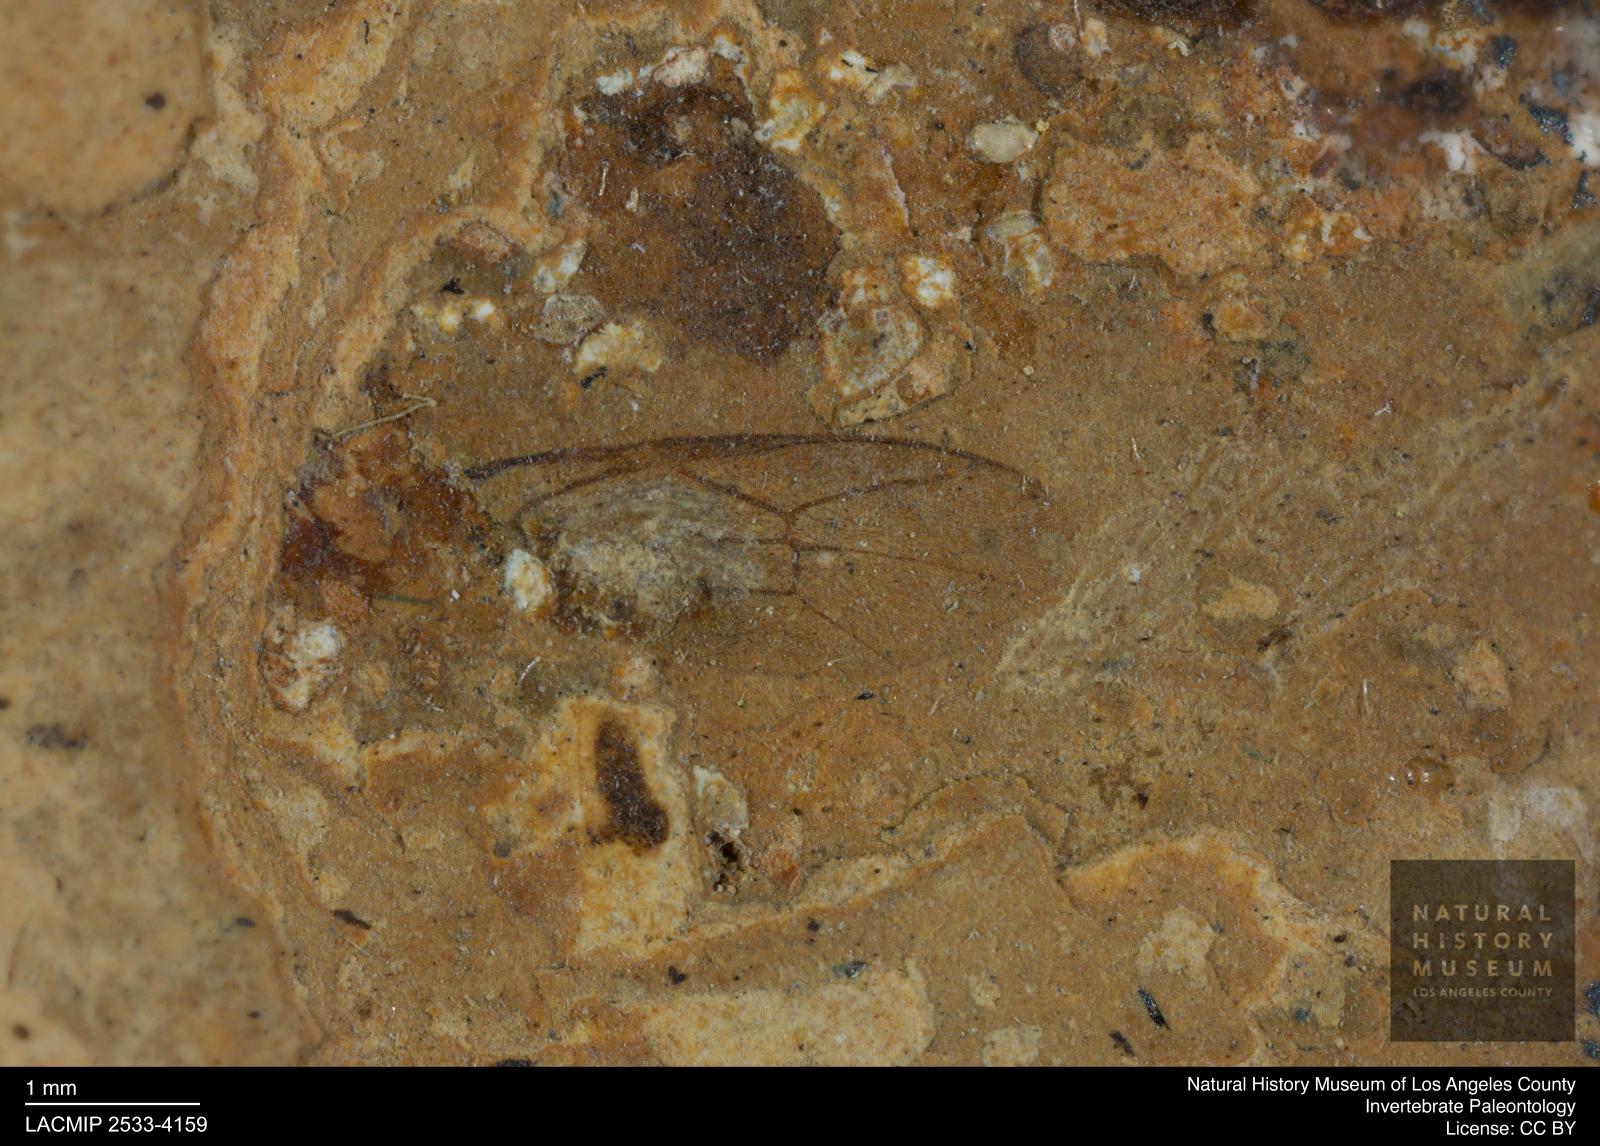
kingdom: Animalia
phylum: Arthropoda
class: Insecta
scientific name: Insecta
